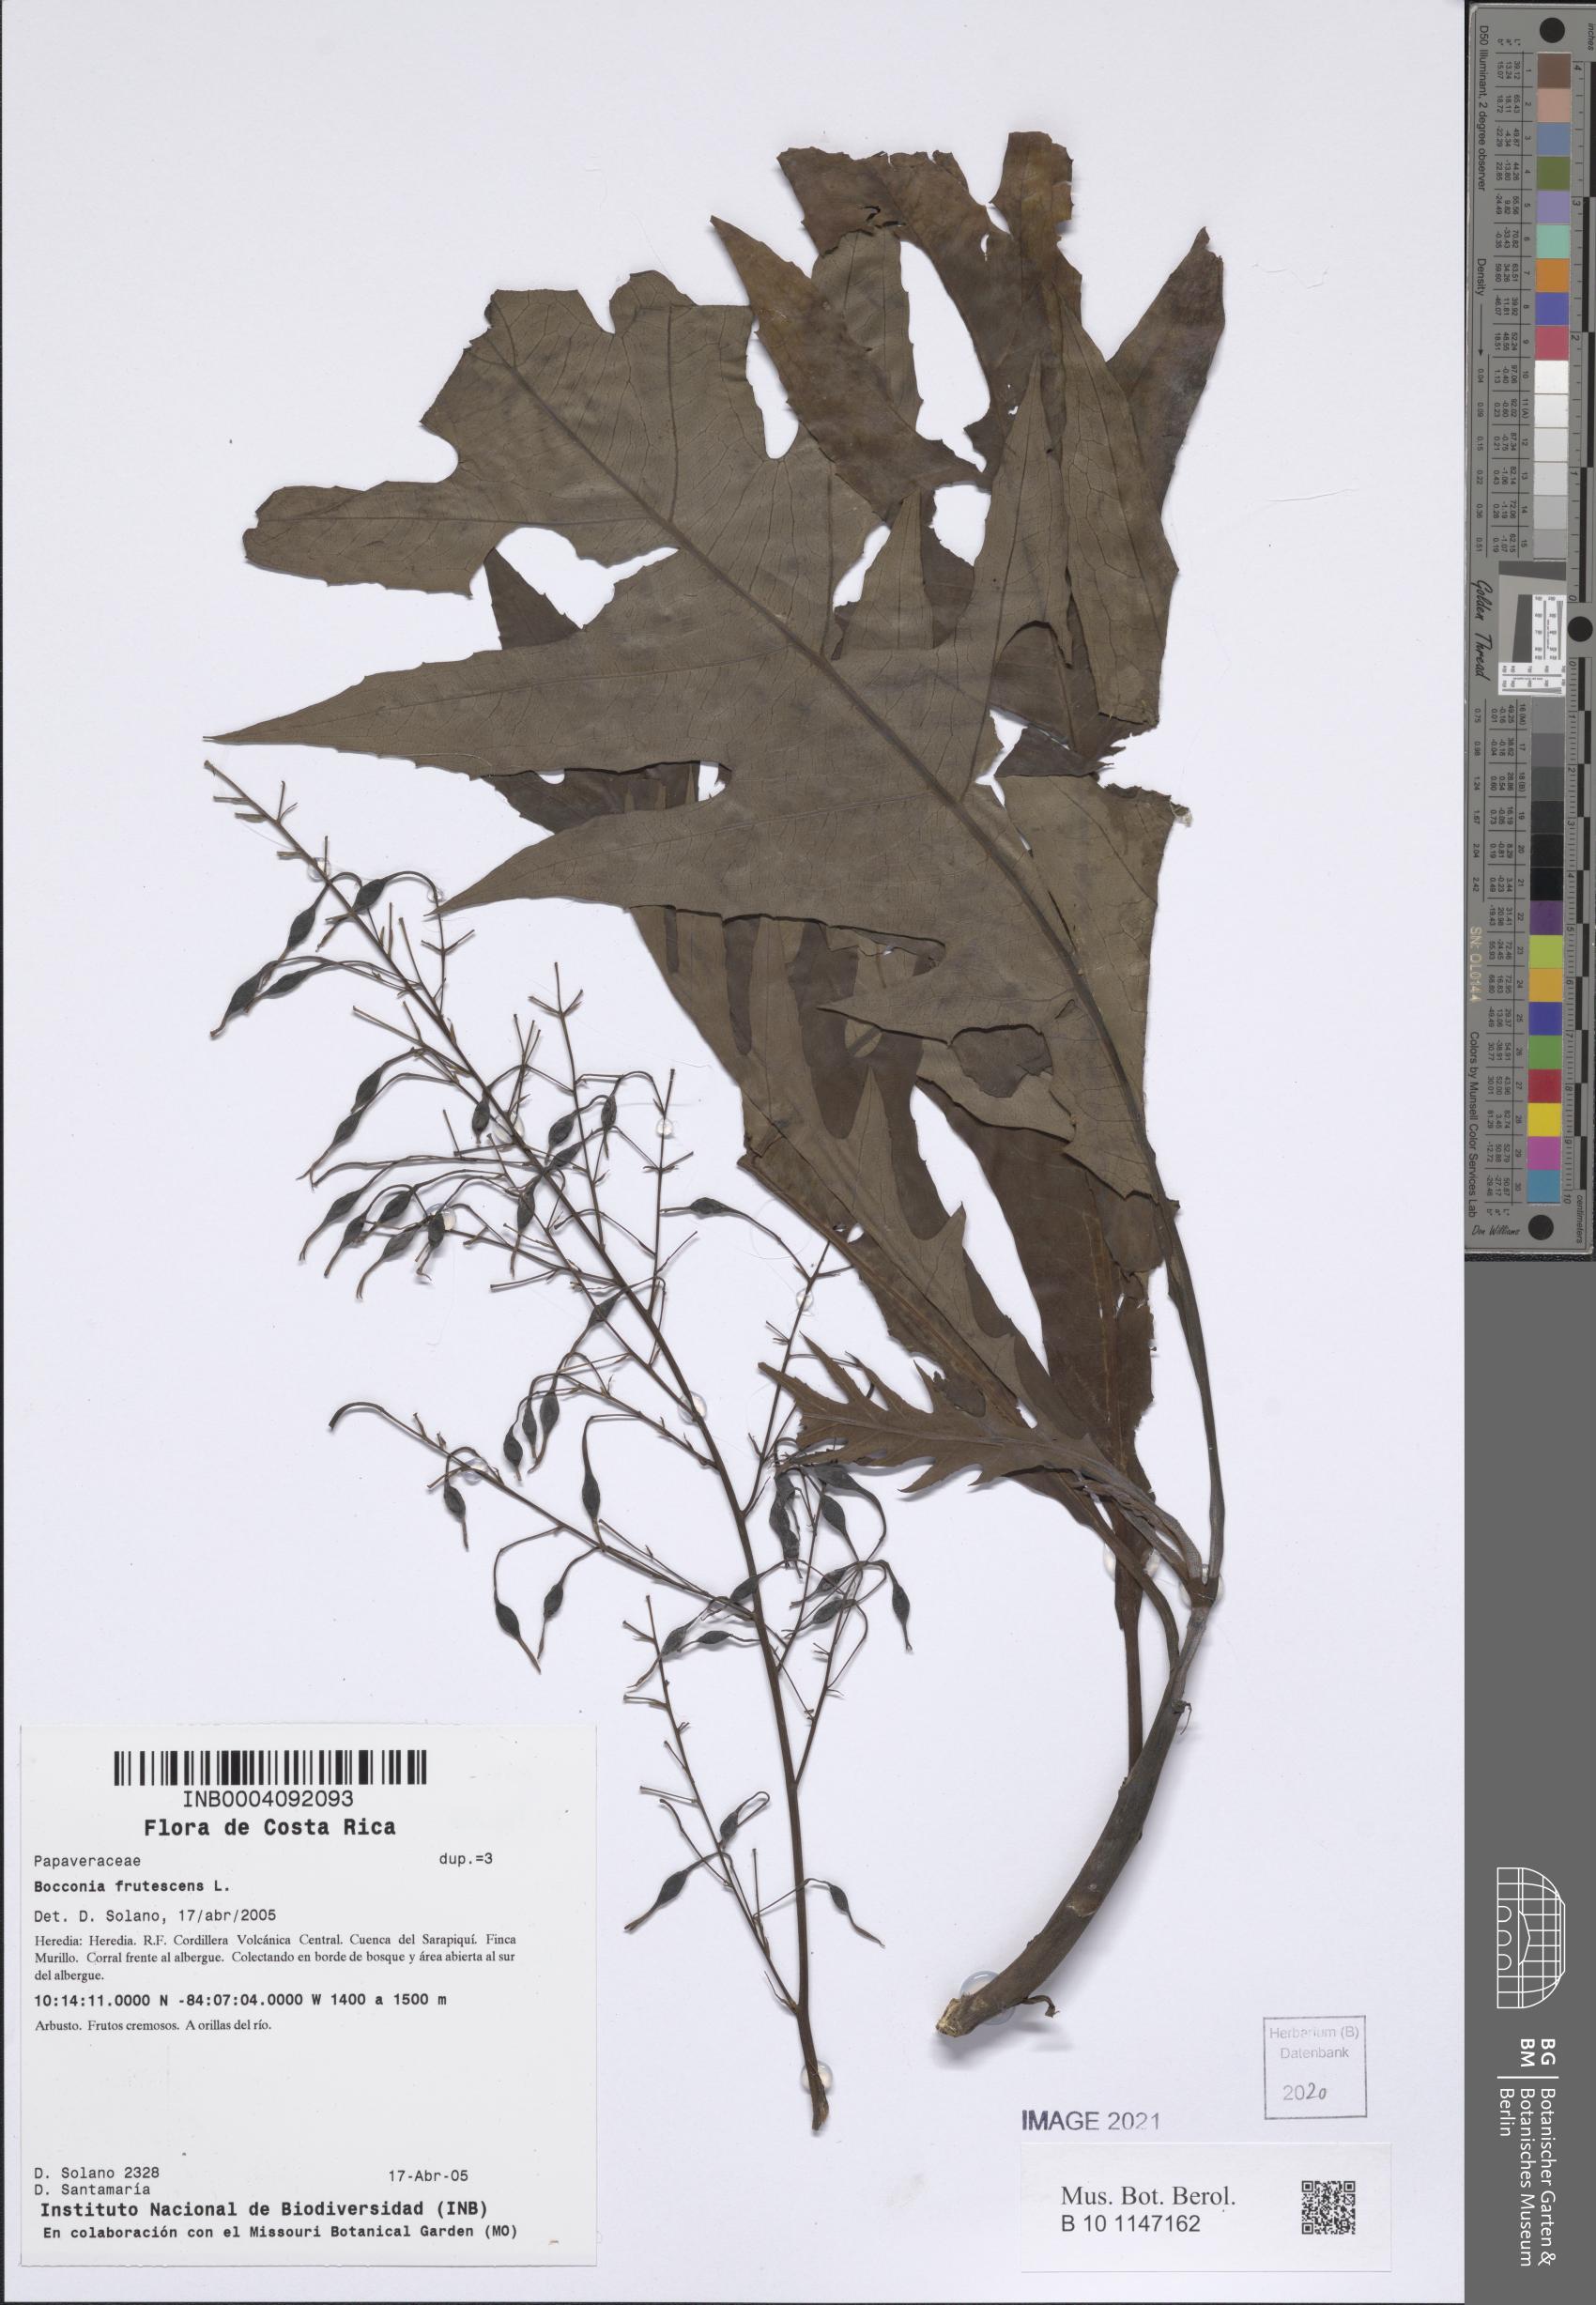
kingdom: Plantae
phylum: Tracheophyta
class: Magnoliopsida
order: Ranunculales
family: Papaveraceae
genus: Bocconia
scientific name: Bocconia frutescens
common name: Tree poppy
